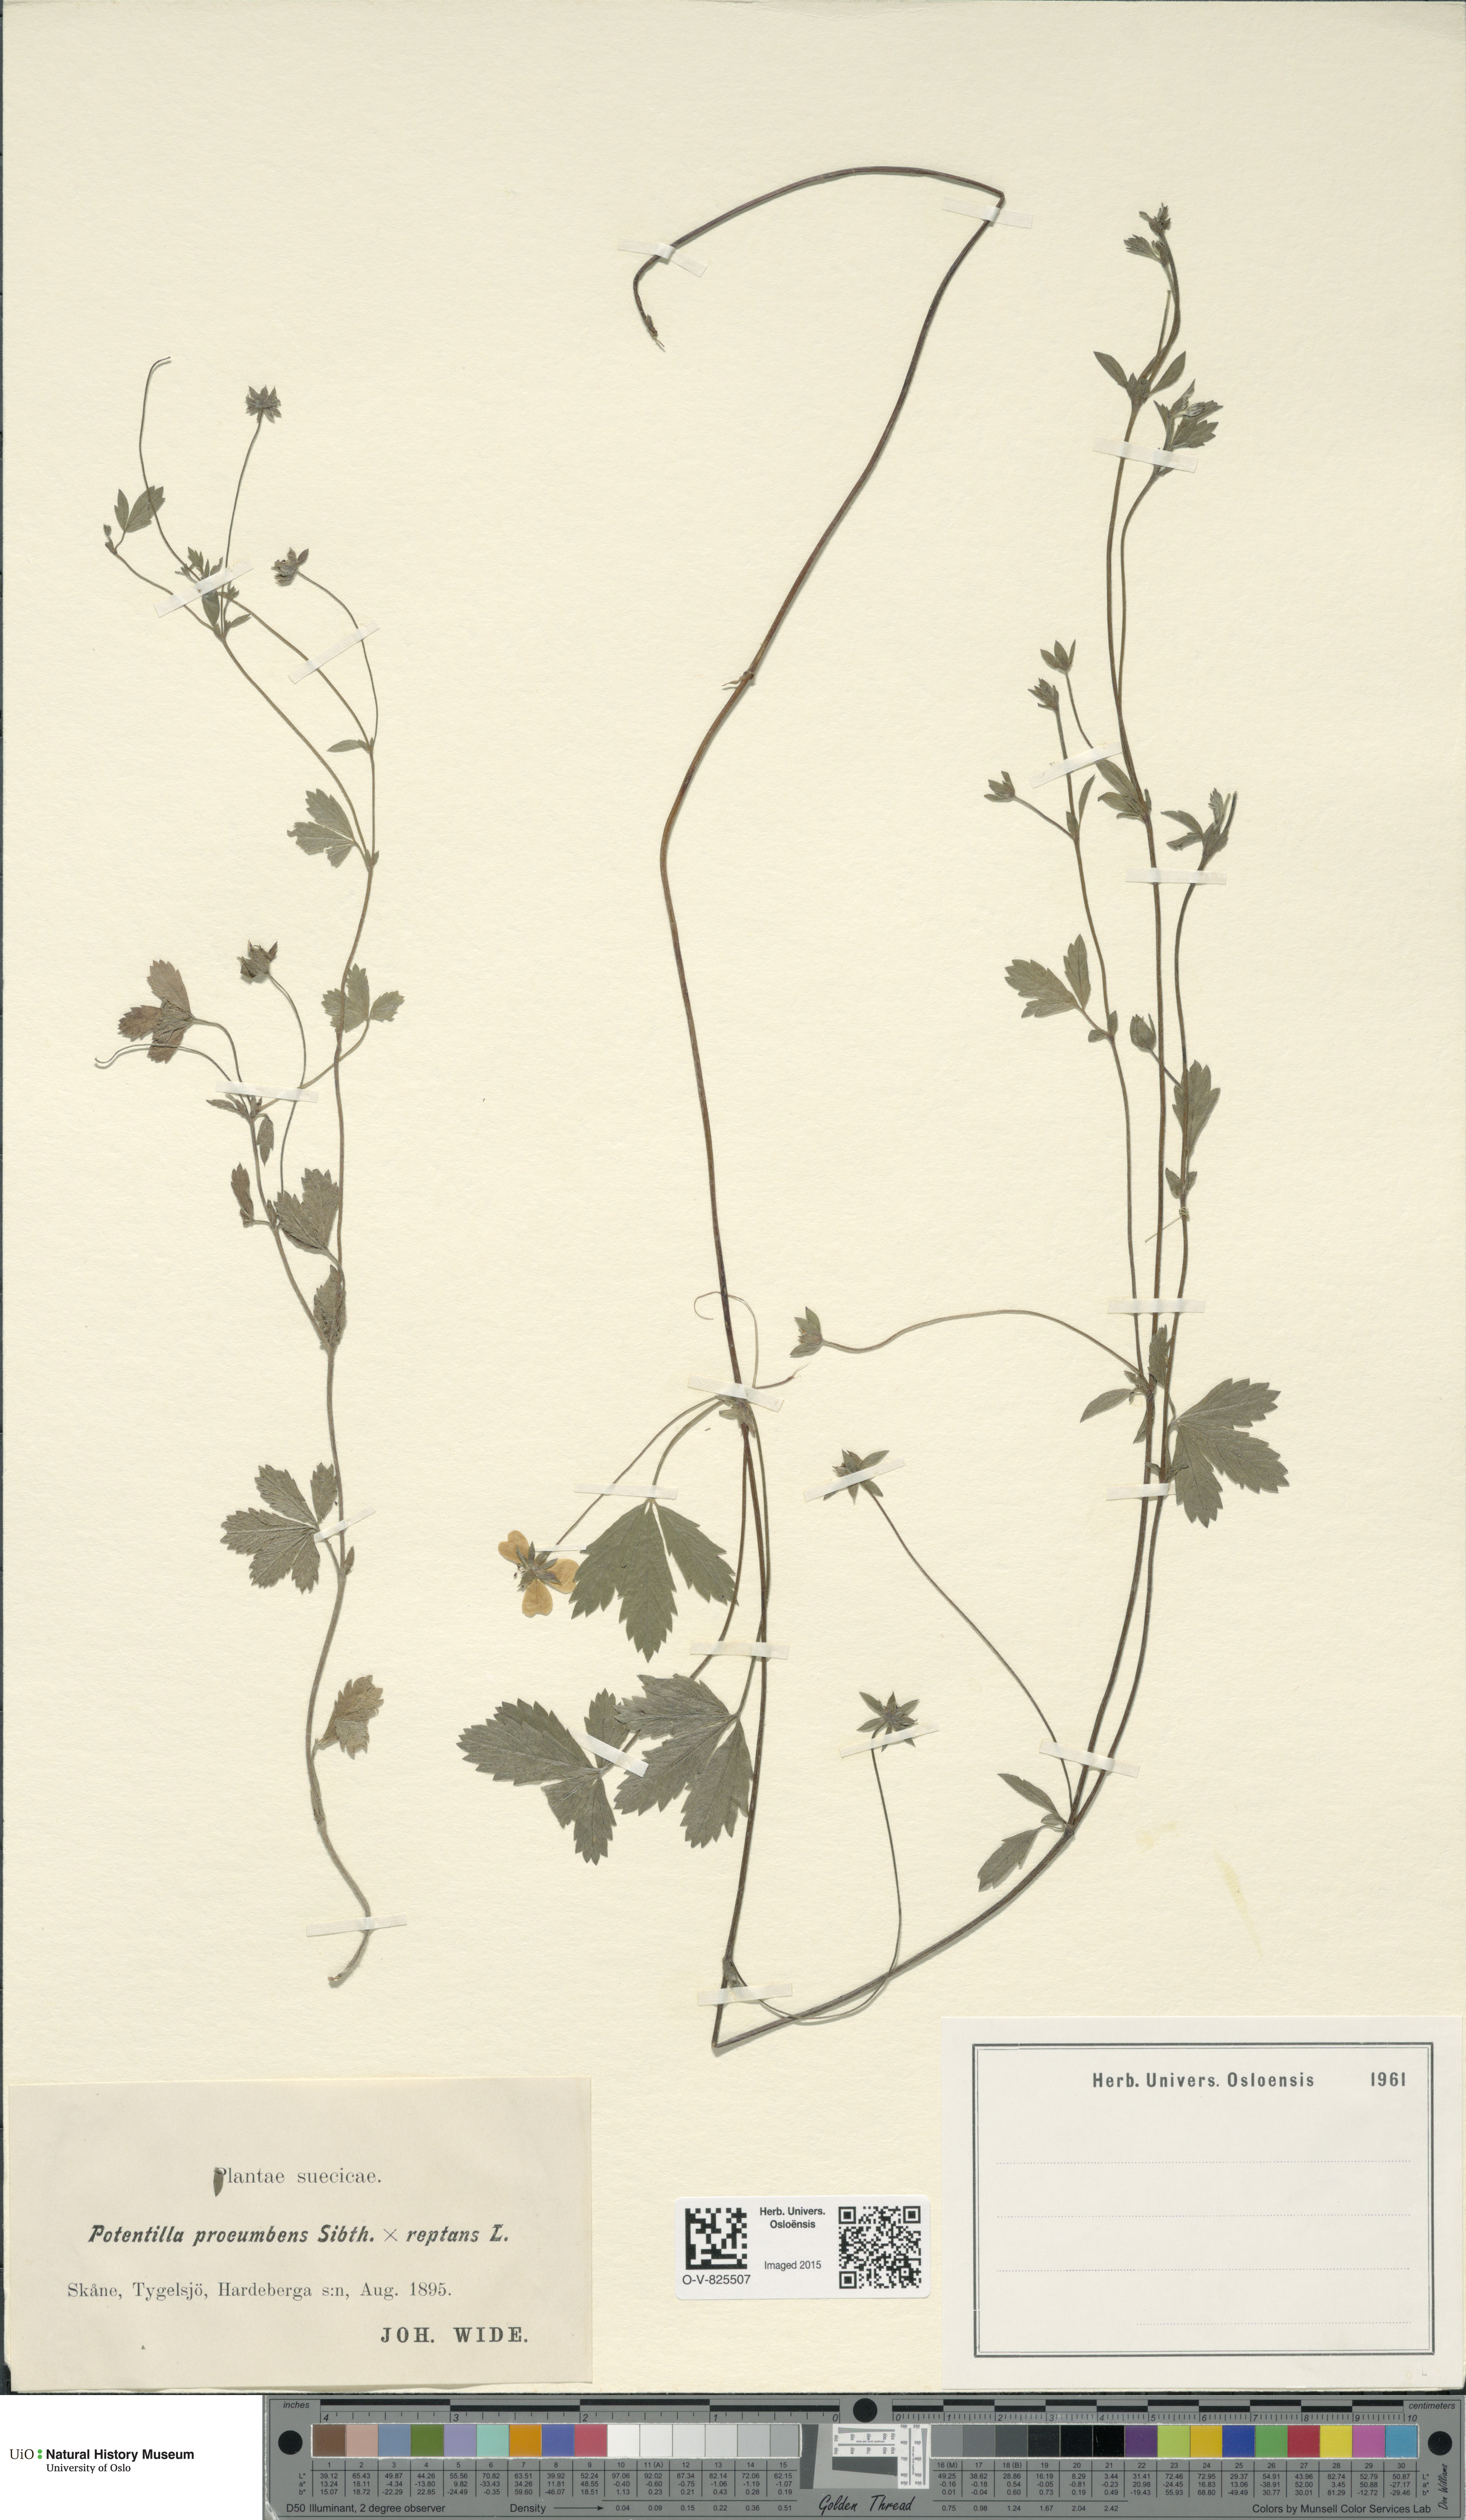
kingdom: Plantae
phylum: Tracheophyta
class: Magnoliopsida
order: Rosales
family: Rosaceae
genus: Potentilla
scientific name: Potentilla
